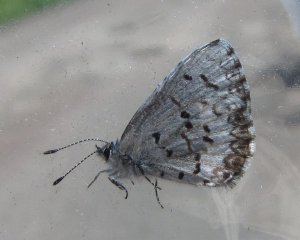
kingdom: Animalia
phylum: Arthropoda
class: Insecta
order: Lepidoptera
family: Lycaenidae
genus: Celastrina
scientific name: Celastrina
